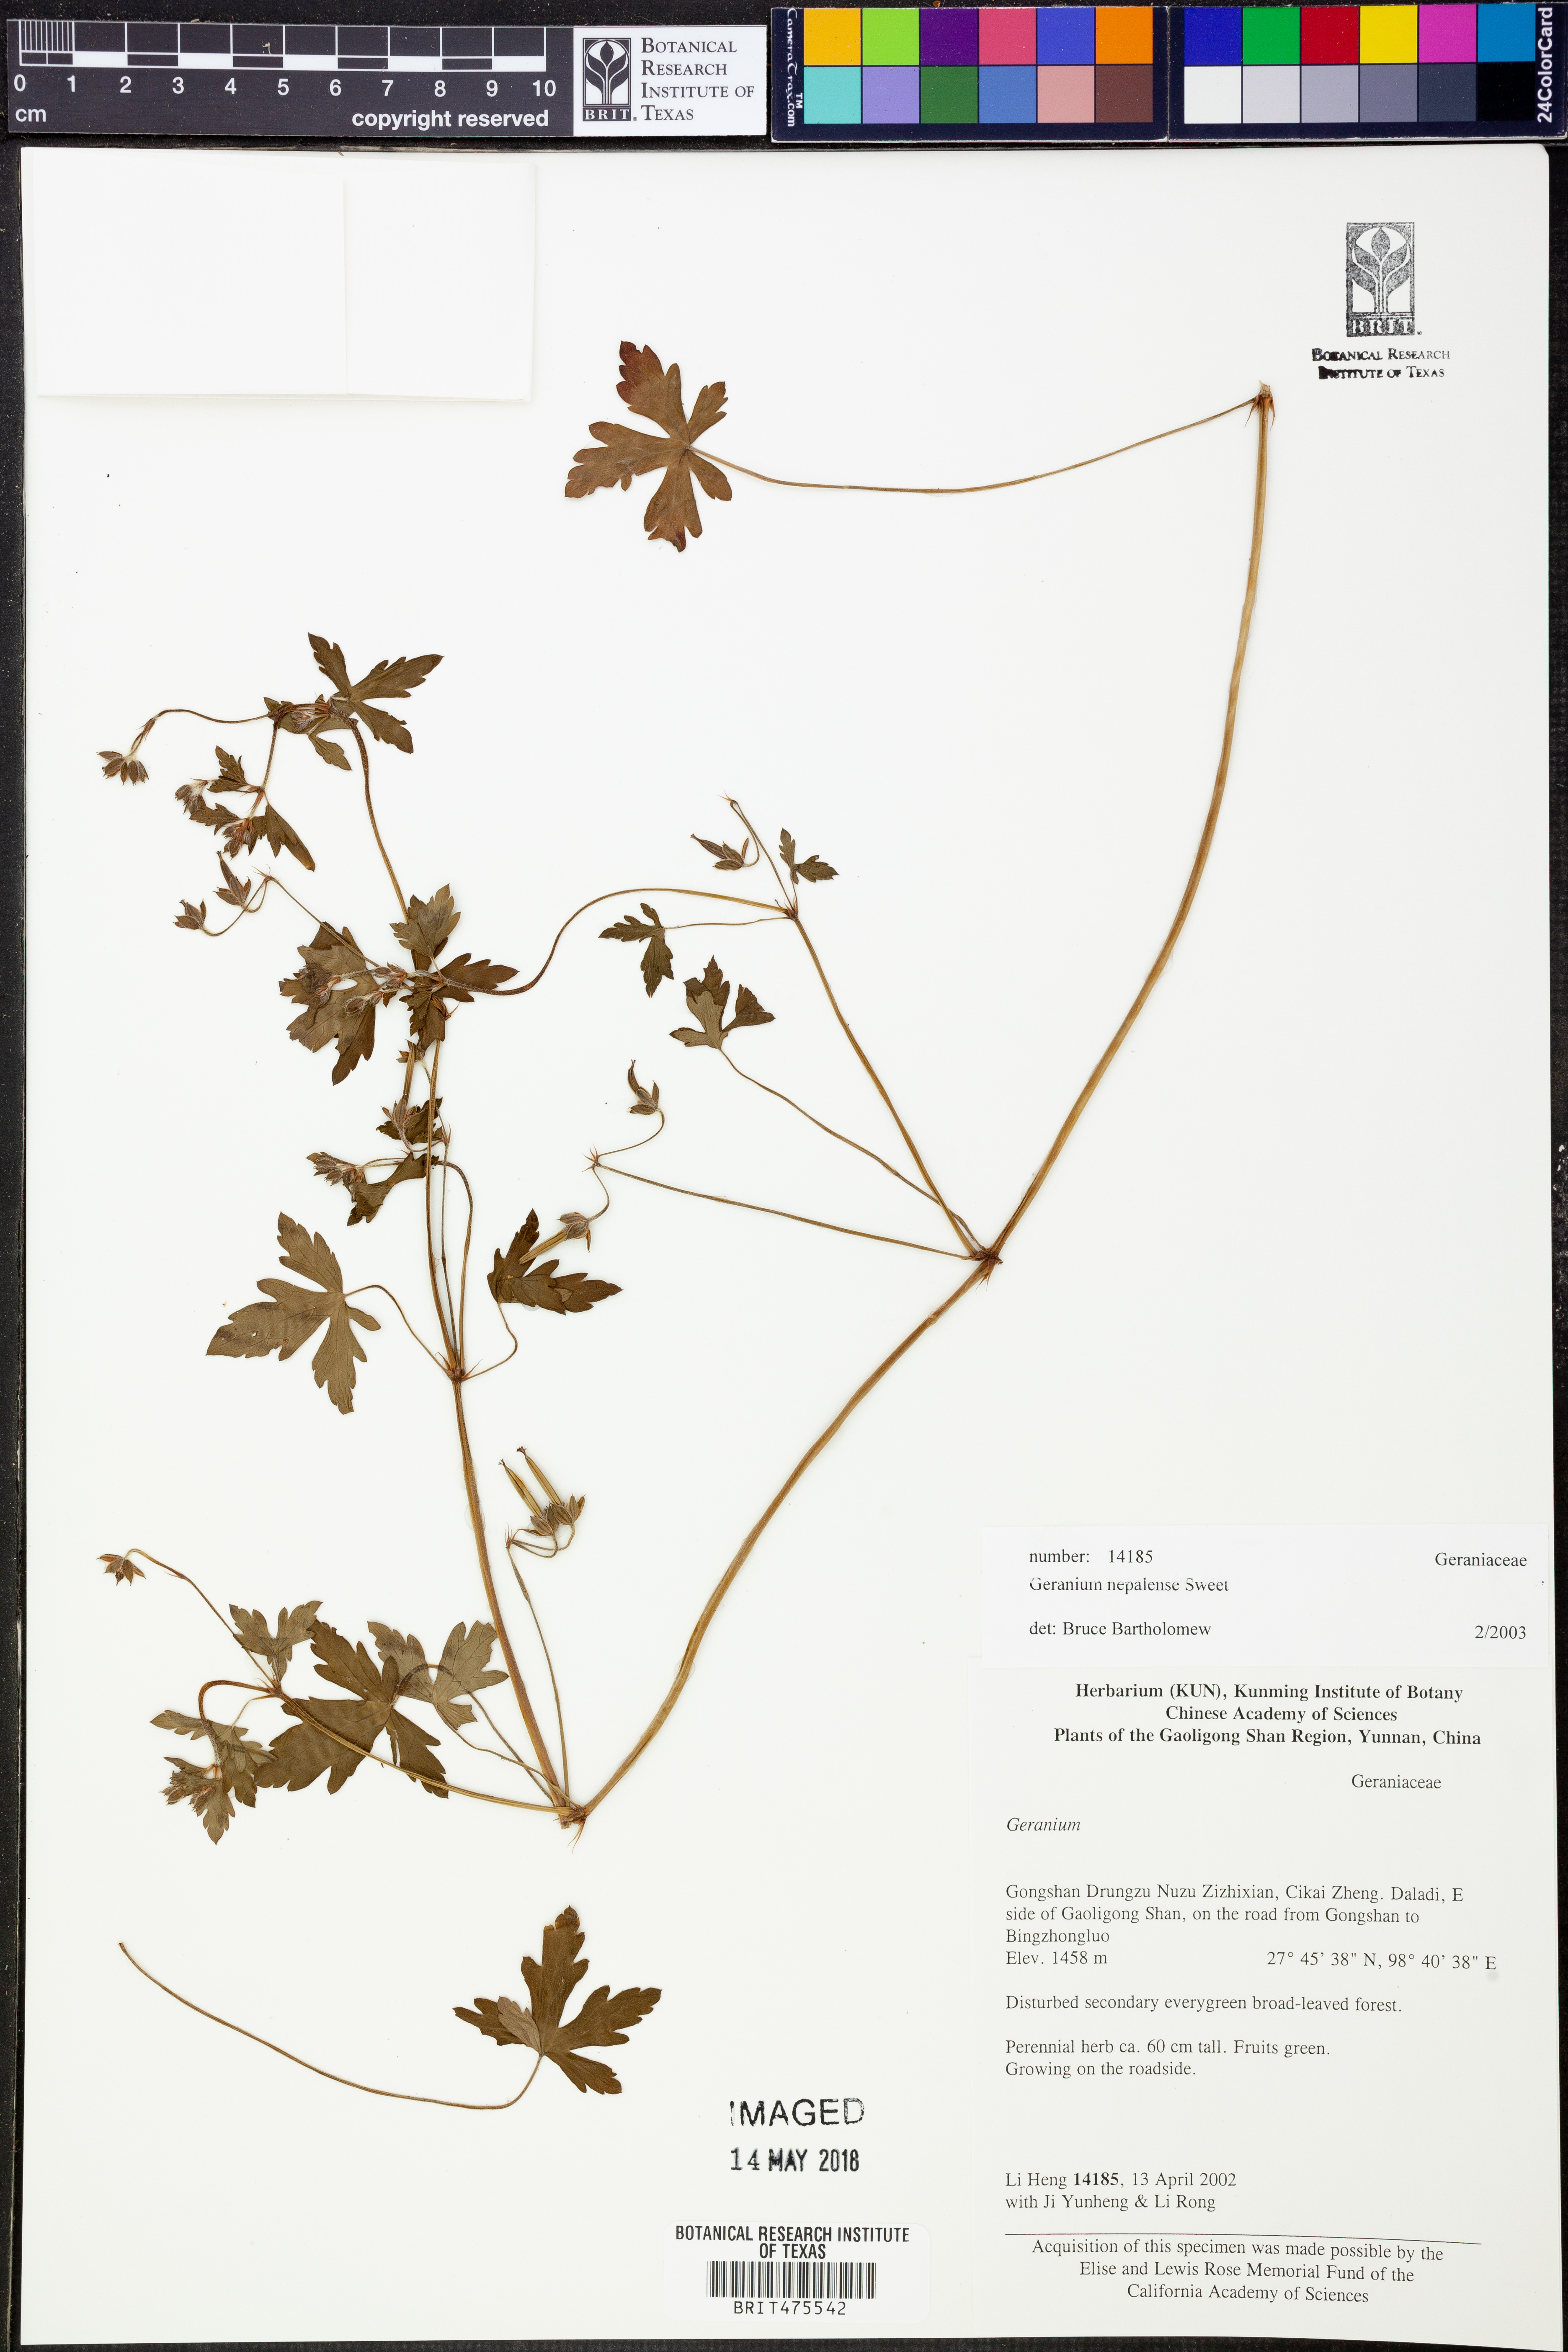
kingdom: Plantae
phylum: Tracheophyta
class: Magnoliopsida
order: Geraniales
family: Geraniaceae
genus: Geranium
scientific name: Geranium nepalense
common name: Nepalese crane's-bill
